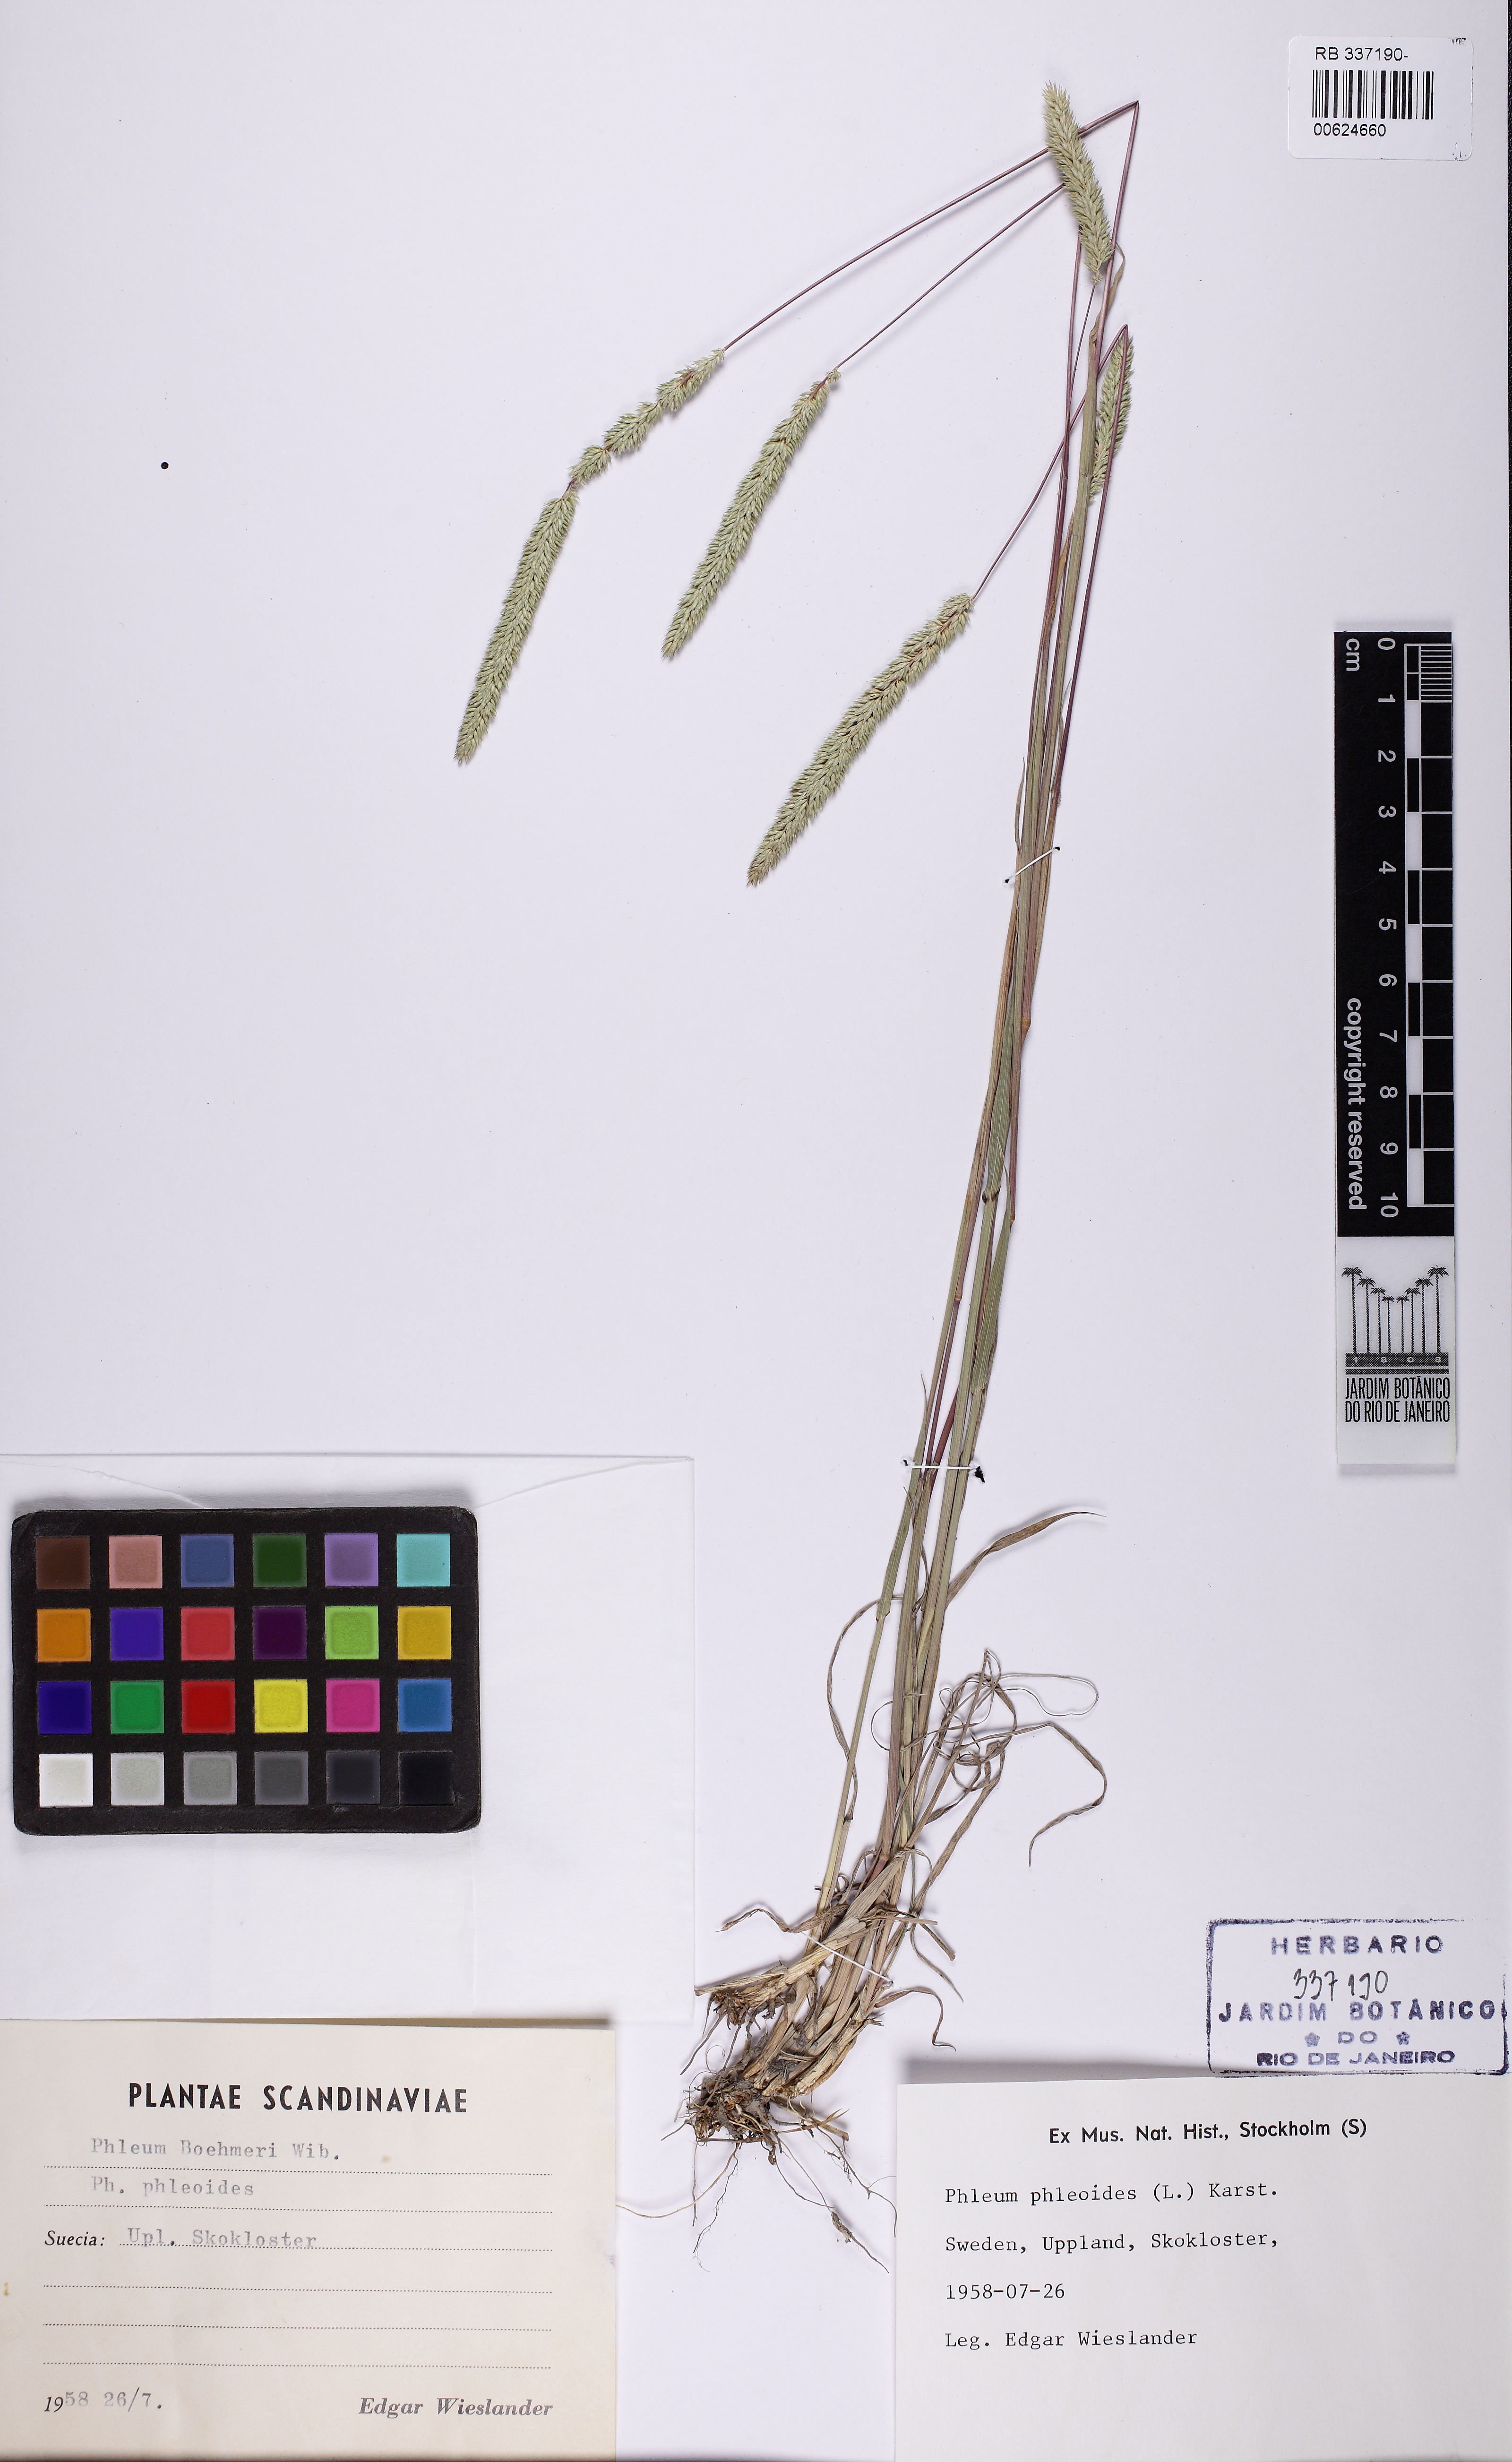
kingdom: Plantae
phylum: Tracheophyta
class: Liliopsida
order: Poales
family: Poaceae
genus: Phleum
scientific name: Phleum phleoides
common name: Purple-stem cat's-tail
